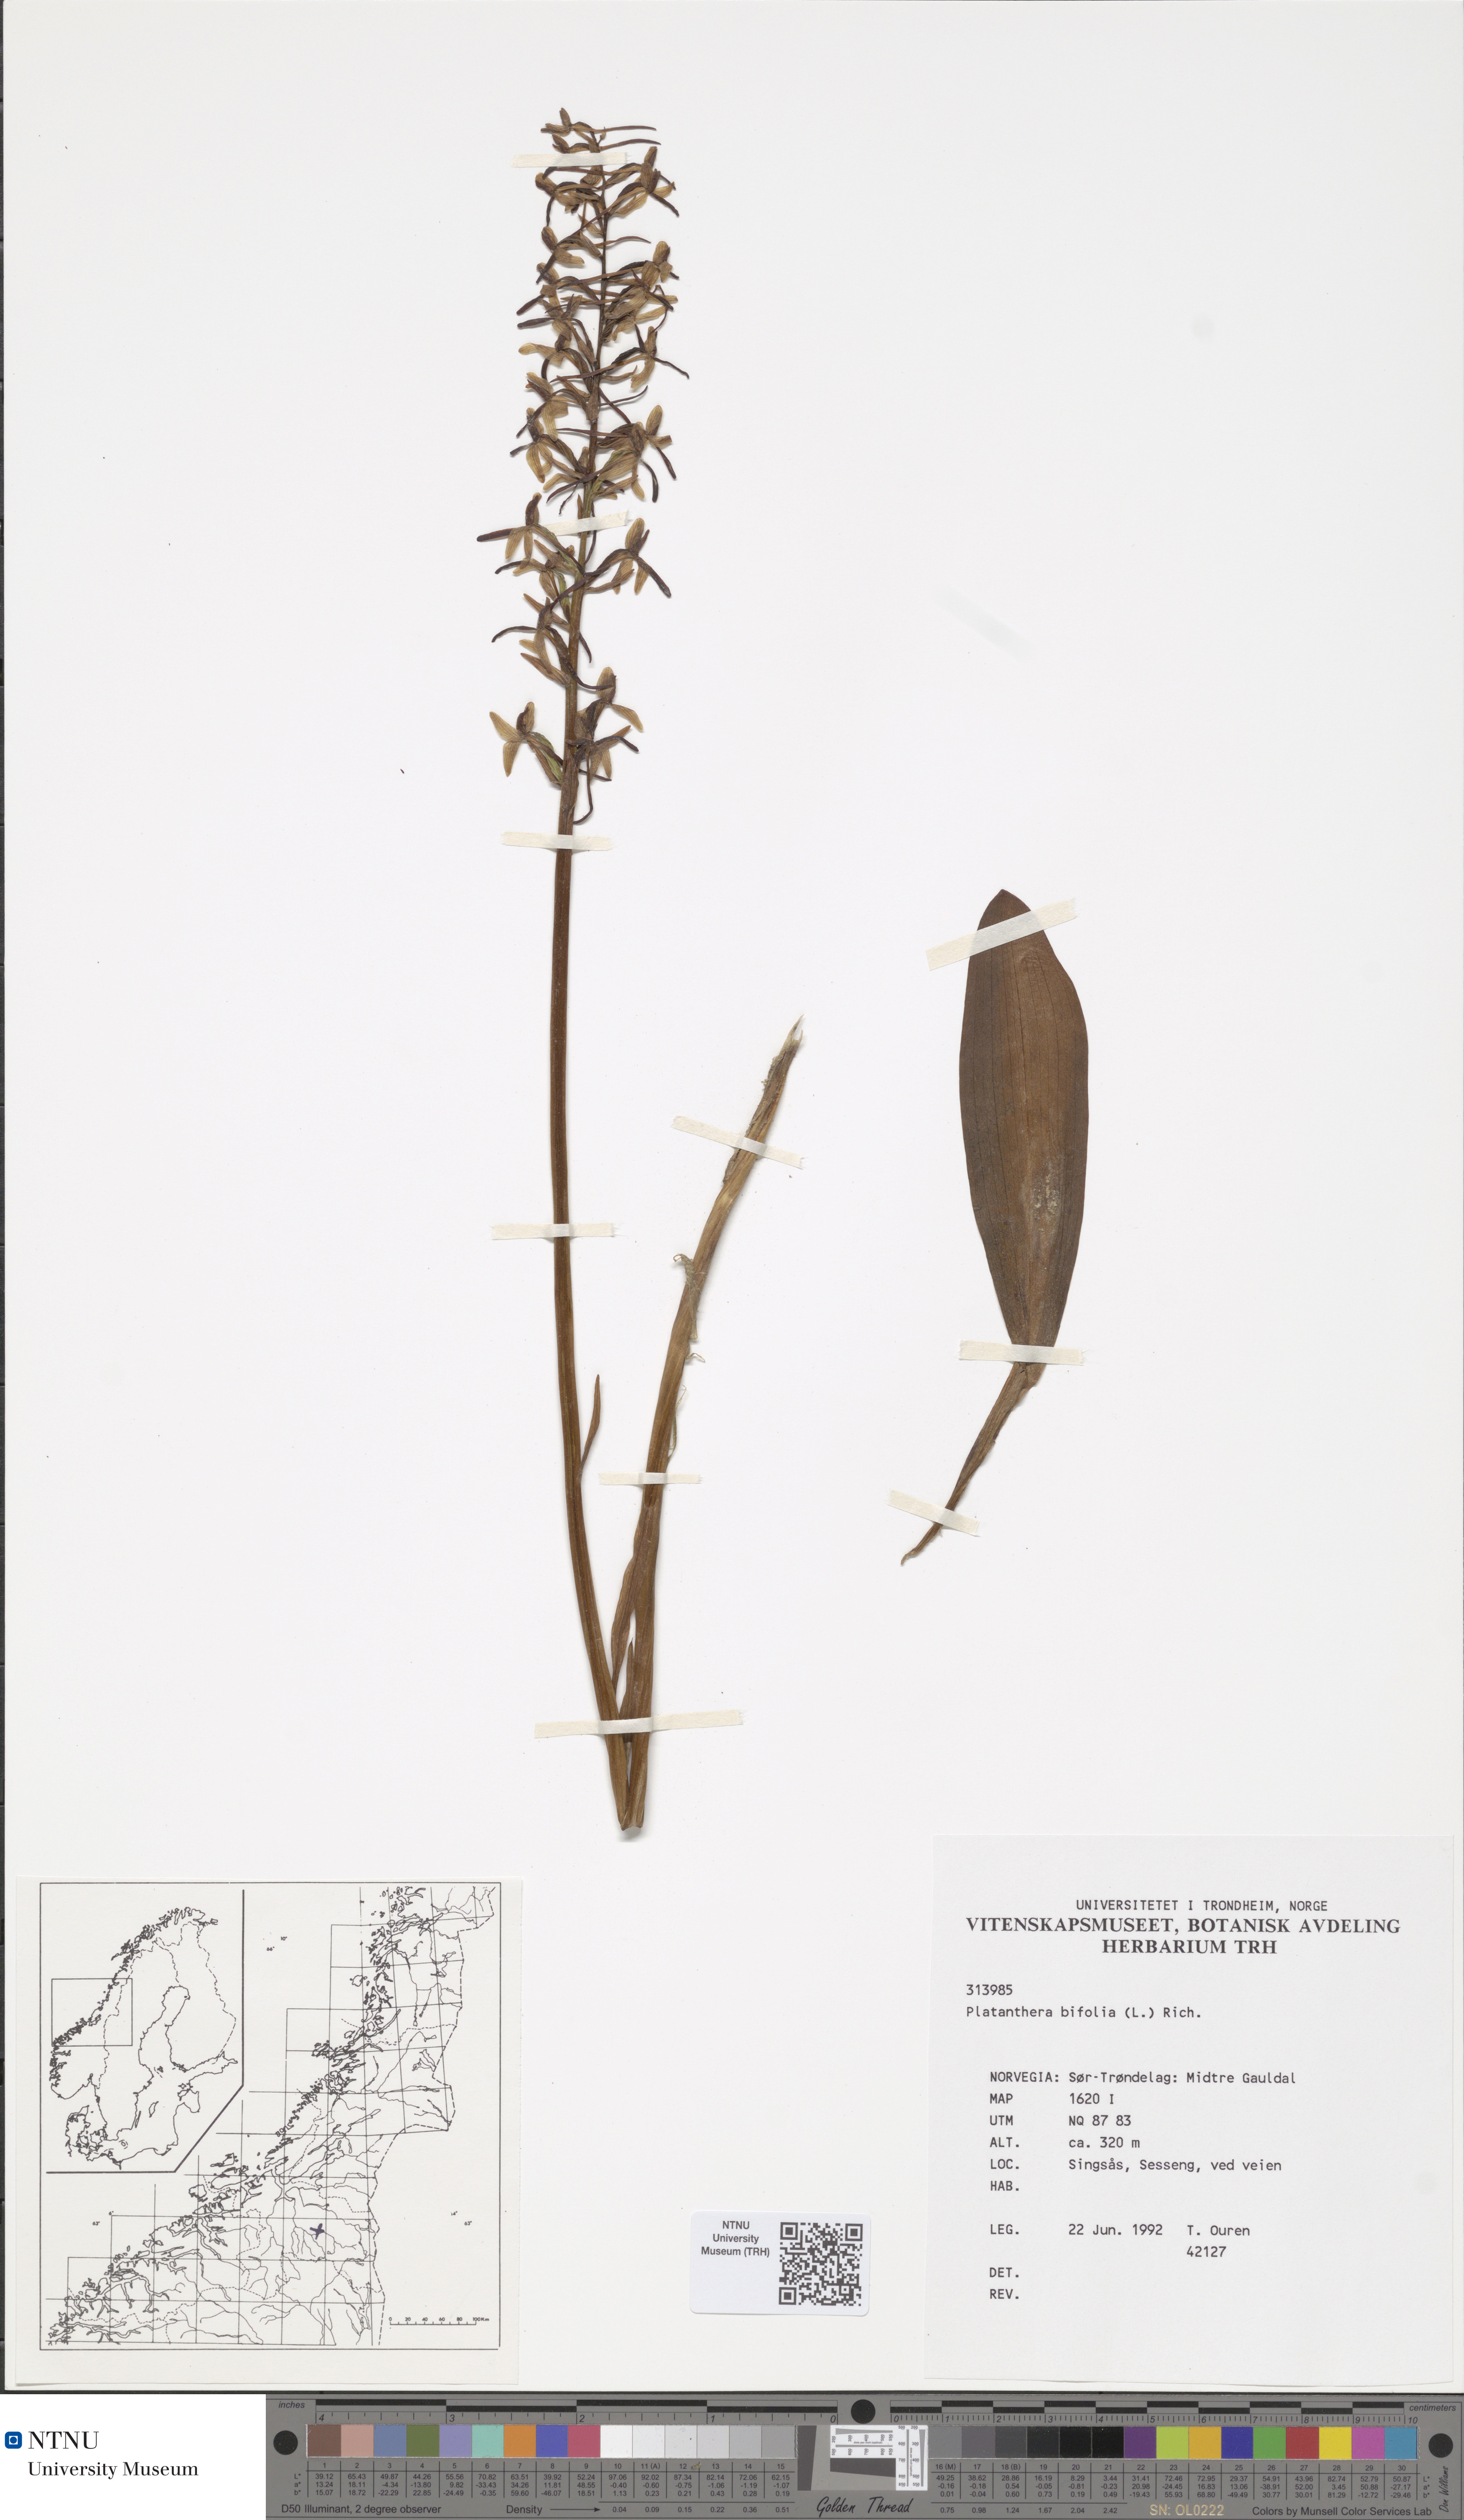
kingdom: Plantae
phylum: Tracheophyta
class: Liliopsida
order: Asparagales
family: Orchidaceae
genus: Platanthera
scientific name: Platanthera bifolia
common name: Lesser butterfly-orchid
